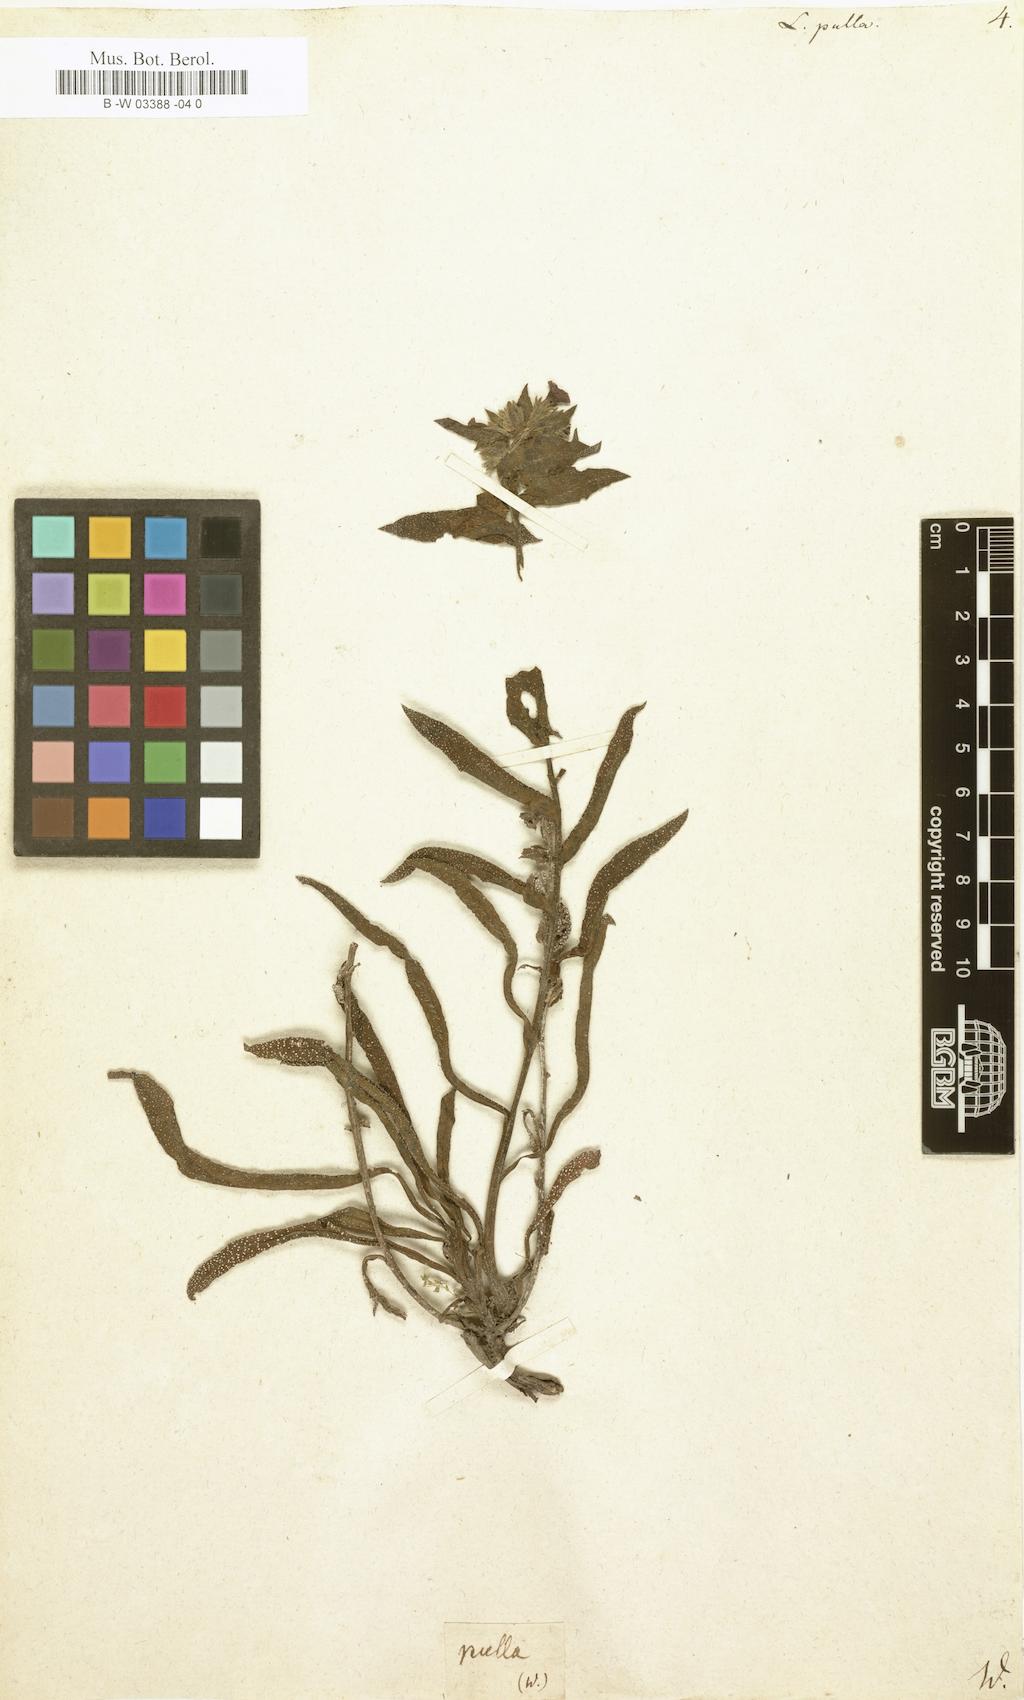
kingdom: Plantae
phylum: Tracheophyta
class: Magnoliopsida
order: Boraginales
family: Boraginaceae
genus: Nonea
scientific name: Nonea
